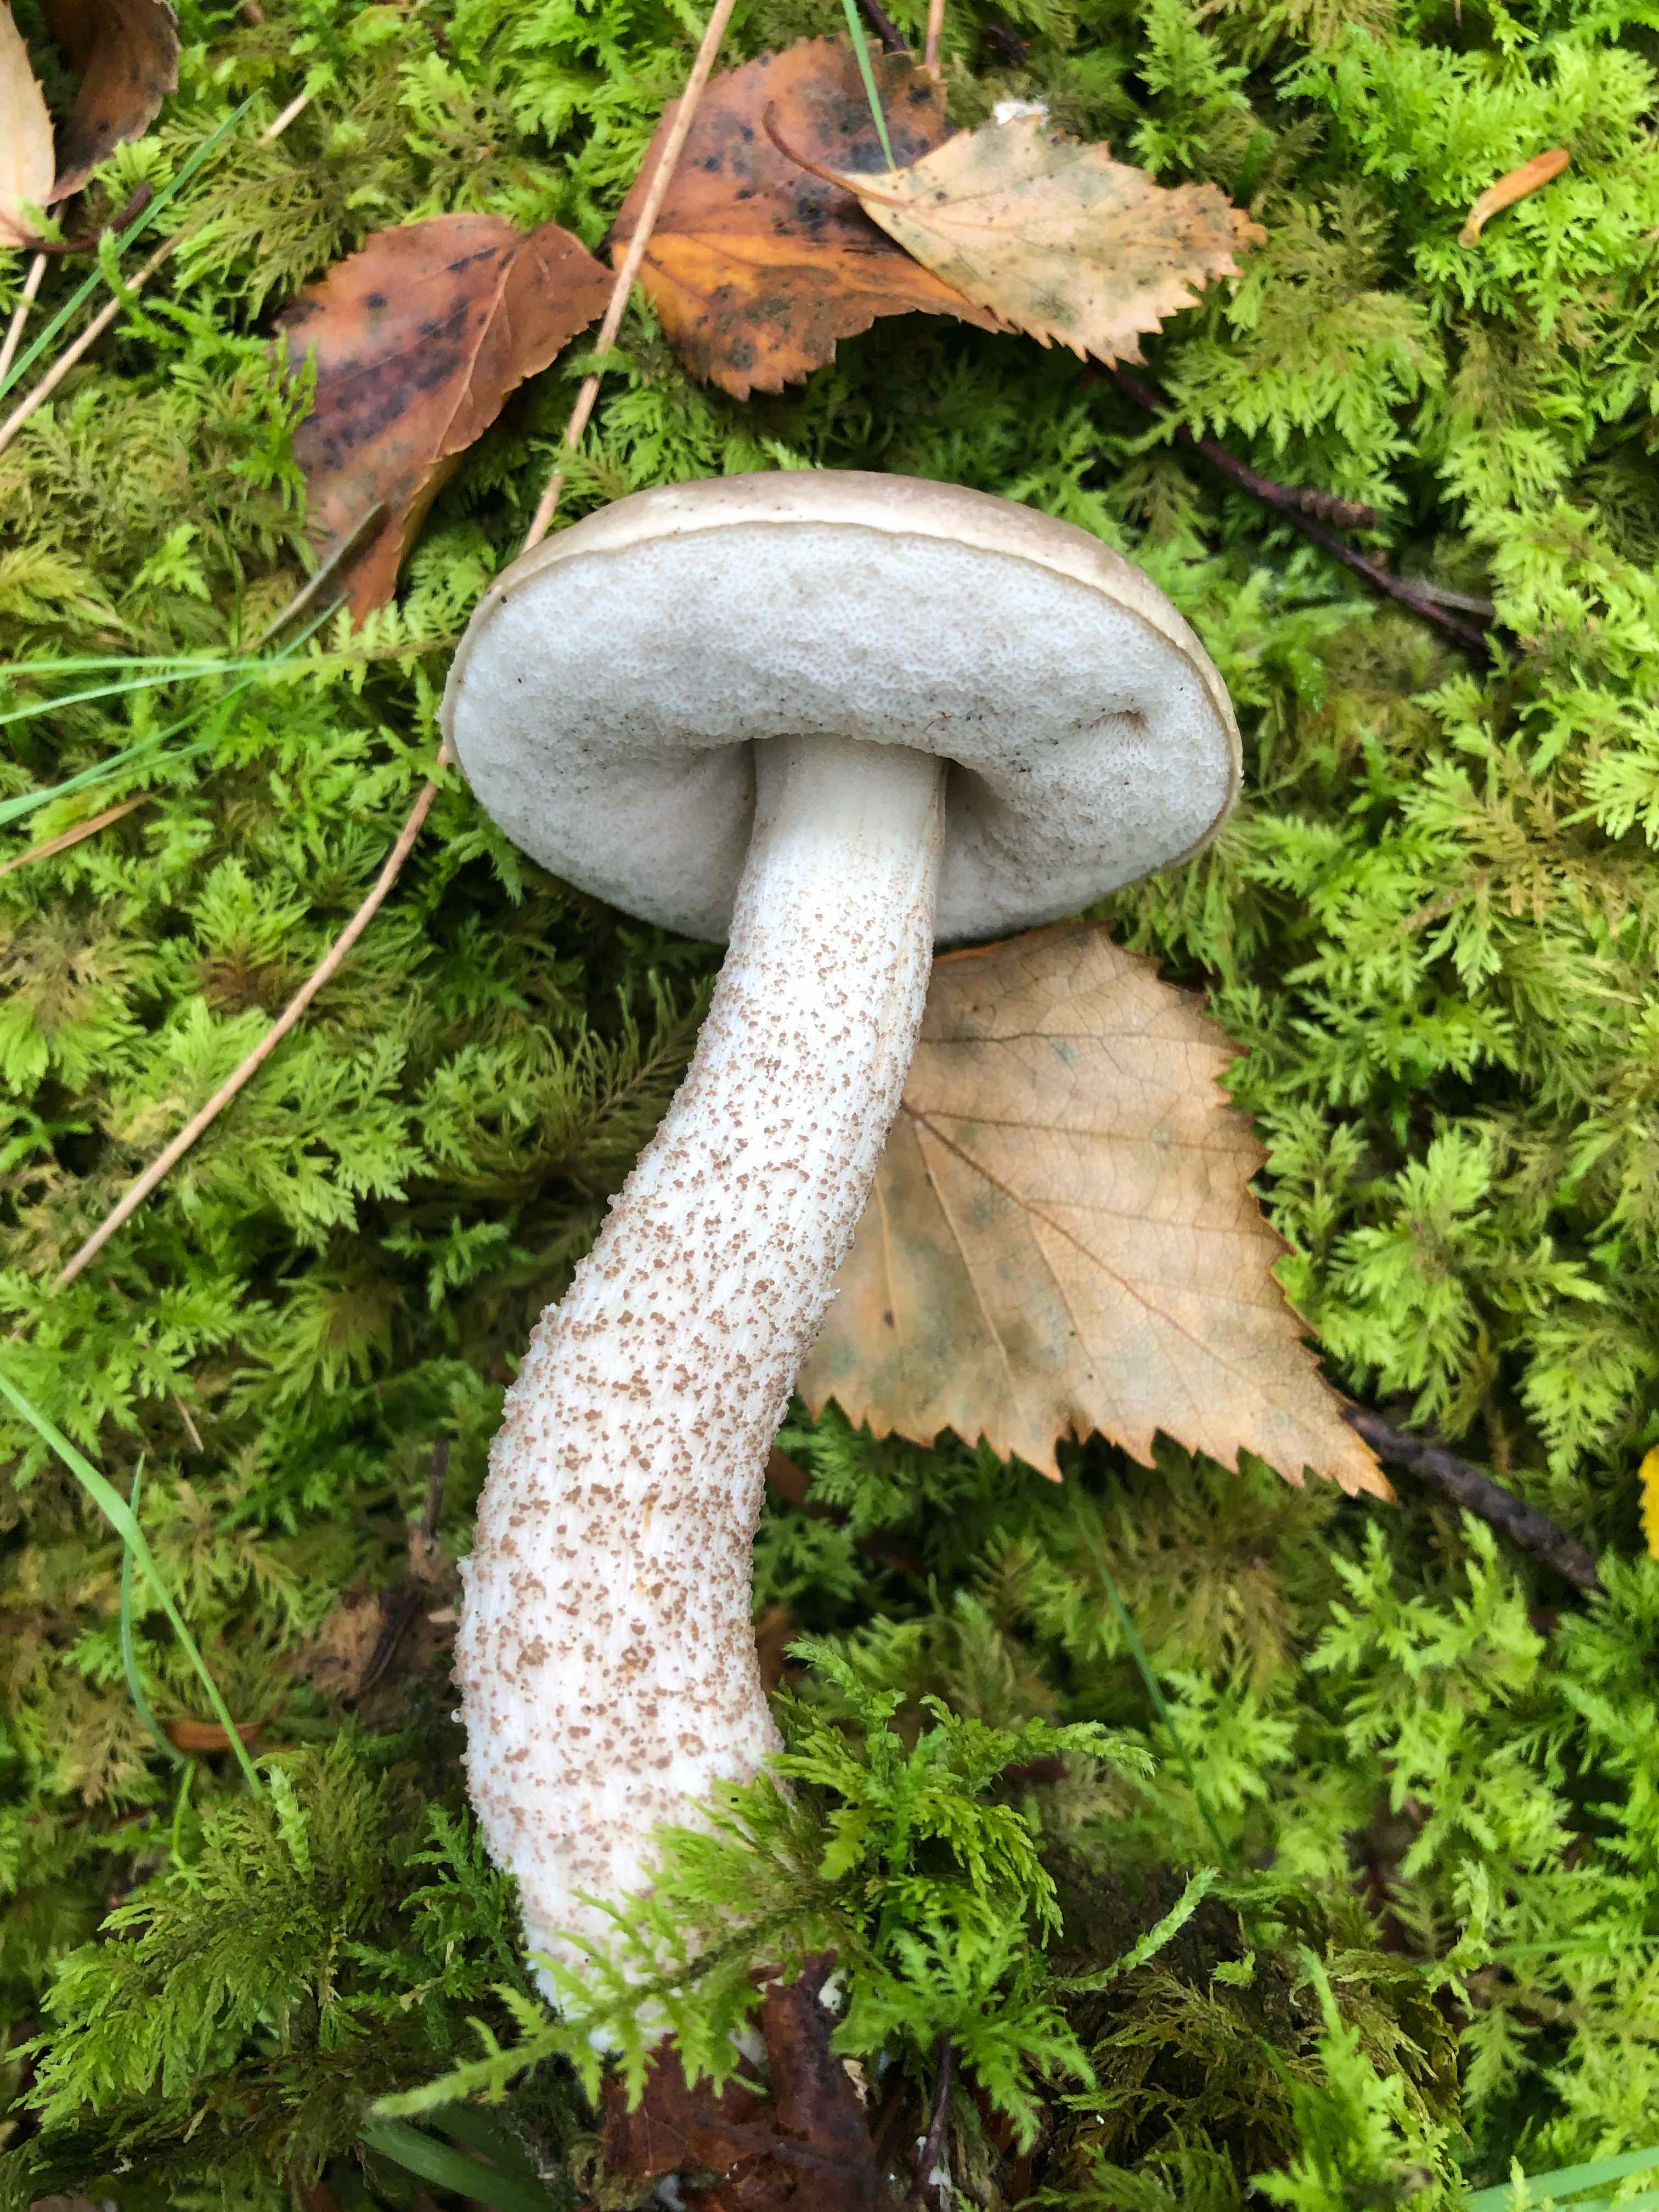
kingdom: Fungi
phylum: Basidiomycota
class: Agaricomycetes
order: Boletales
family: Boletaceae
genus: Leccinum
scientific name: Leccinum cyaneobasileucum
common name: almindelig skælrørhat
